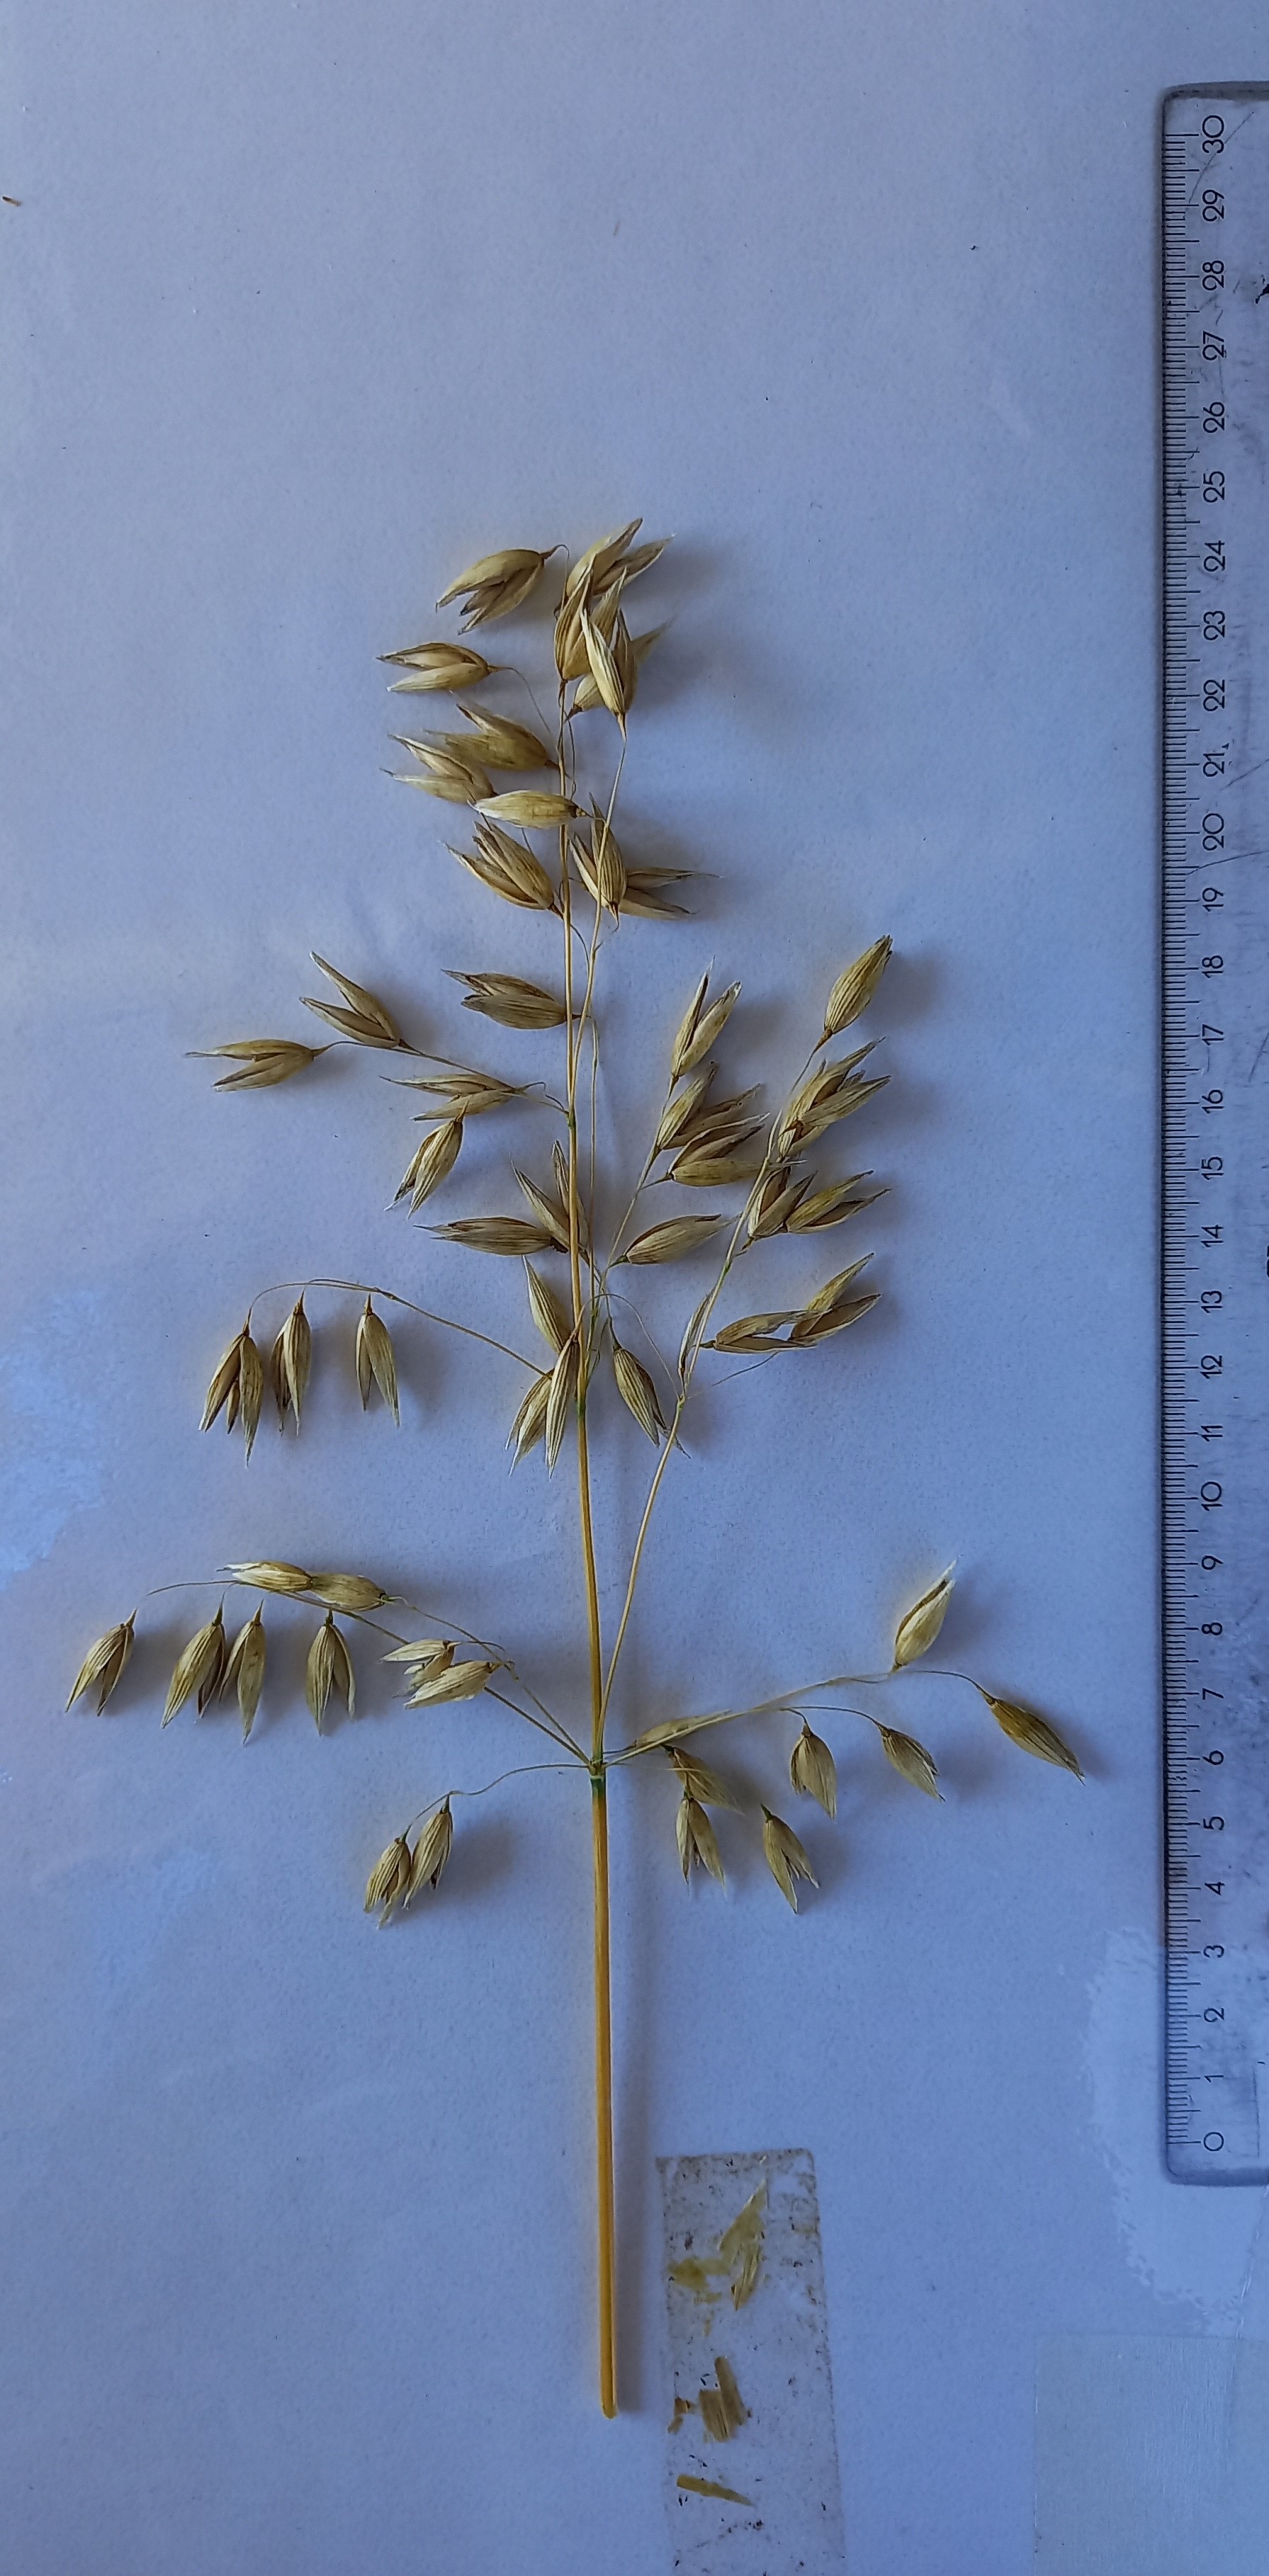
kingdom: Plantae
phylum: Tracheophyta
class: Liliopsida
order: Poales
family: Poaceae
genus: Avena
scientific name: Avena sativa
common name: Oat
